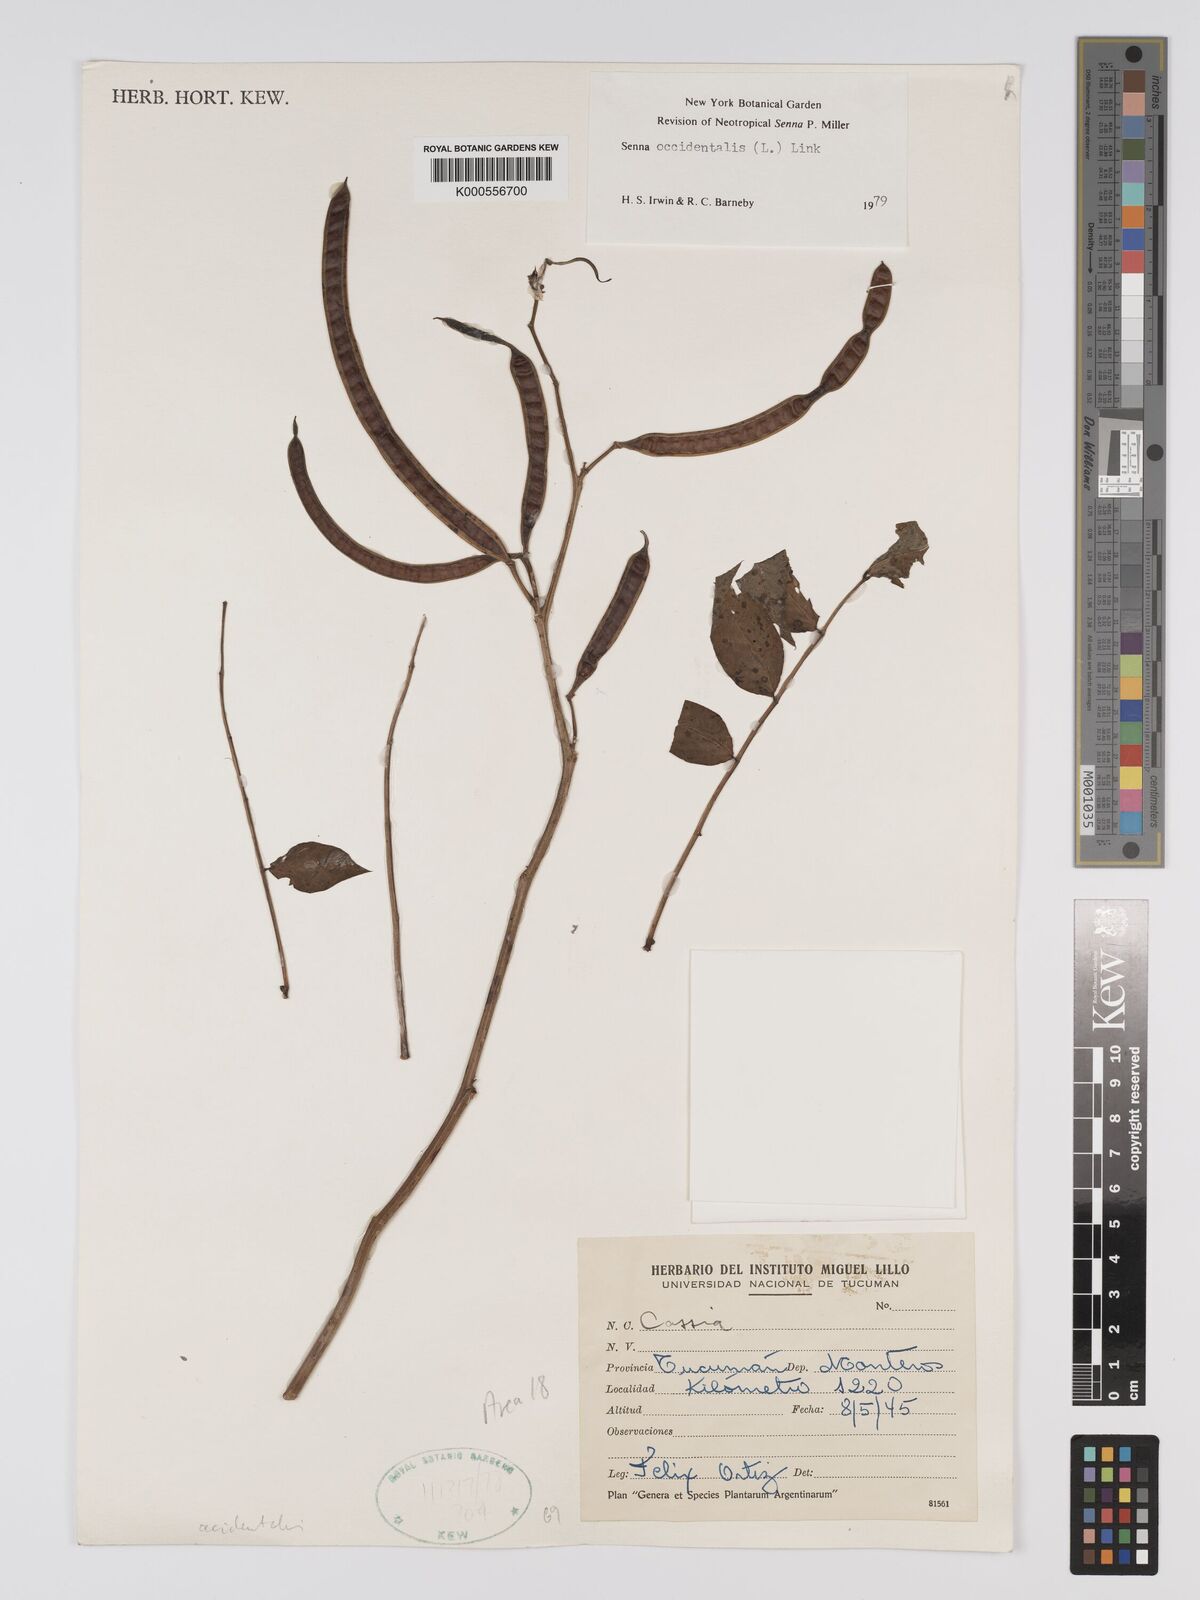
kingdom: Plantae
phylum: Tracheophyta
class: Magnoliopsida
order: Fabales
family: Fabaceae
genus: Senna
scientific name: Senna occidentalis
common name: Septicweed
